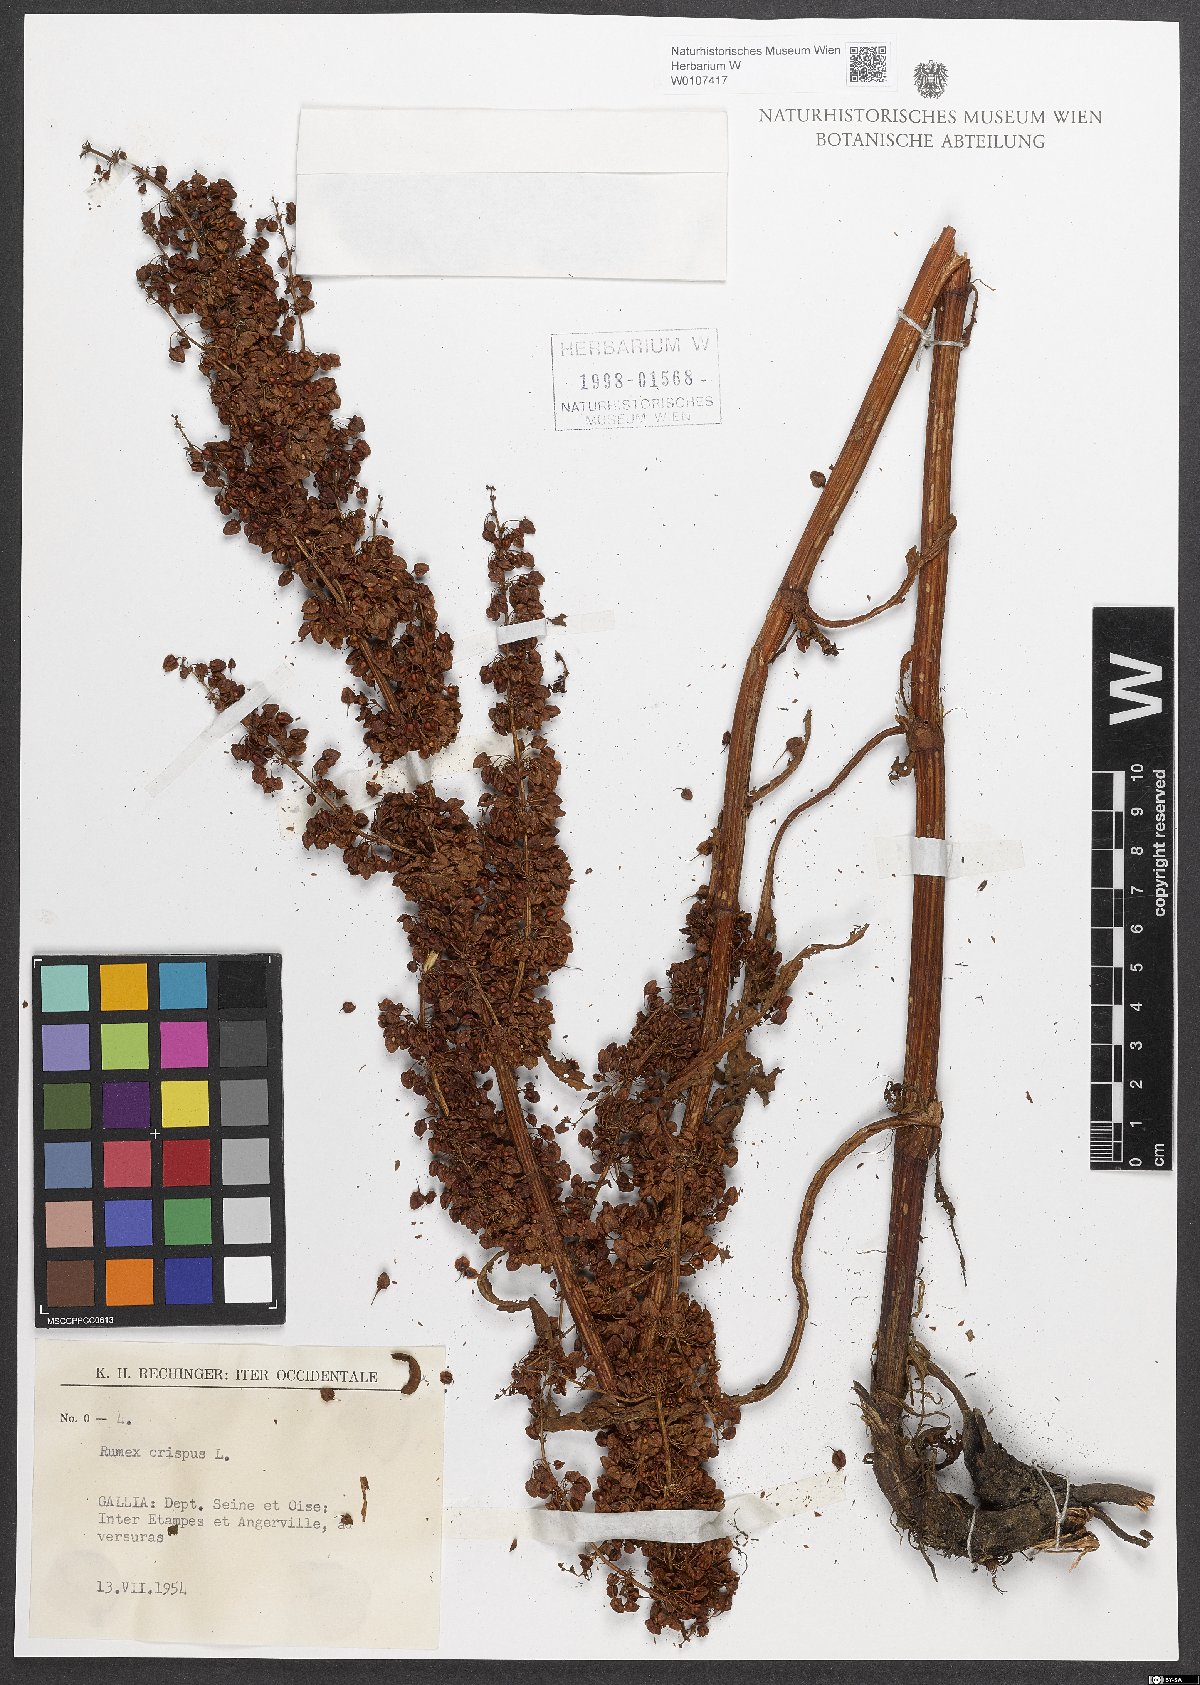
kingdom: Plantae
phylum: Tracheophyta
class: Magnoliopsida
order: Caryophyllales
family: Polygonaceae
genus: Rumex
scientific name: Rumex crispus
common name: Curled dock
